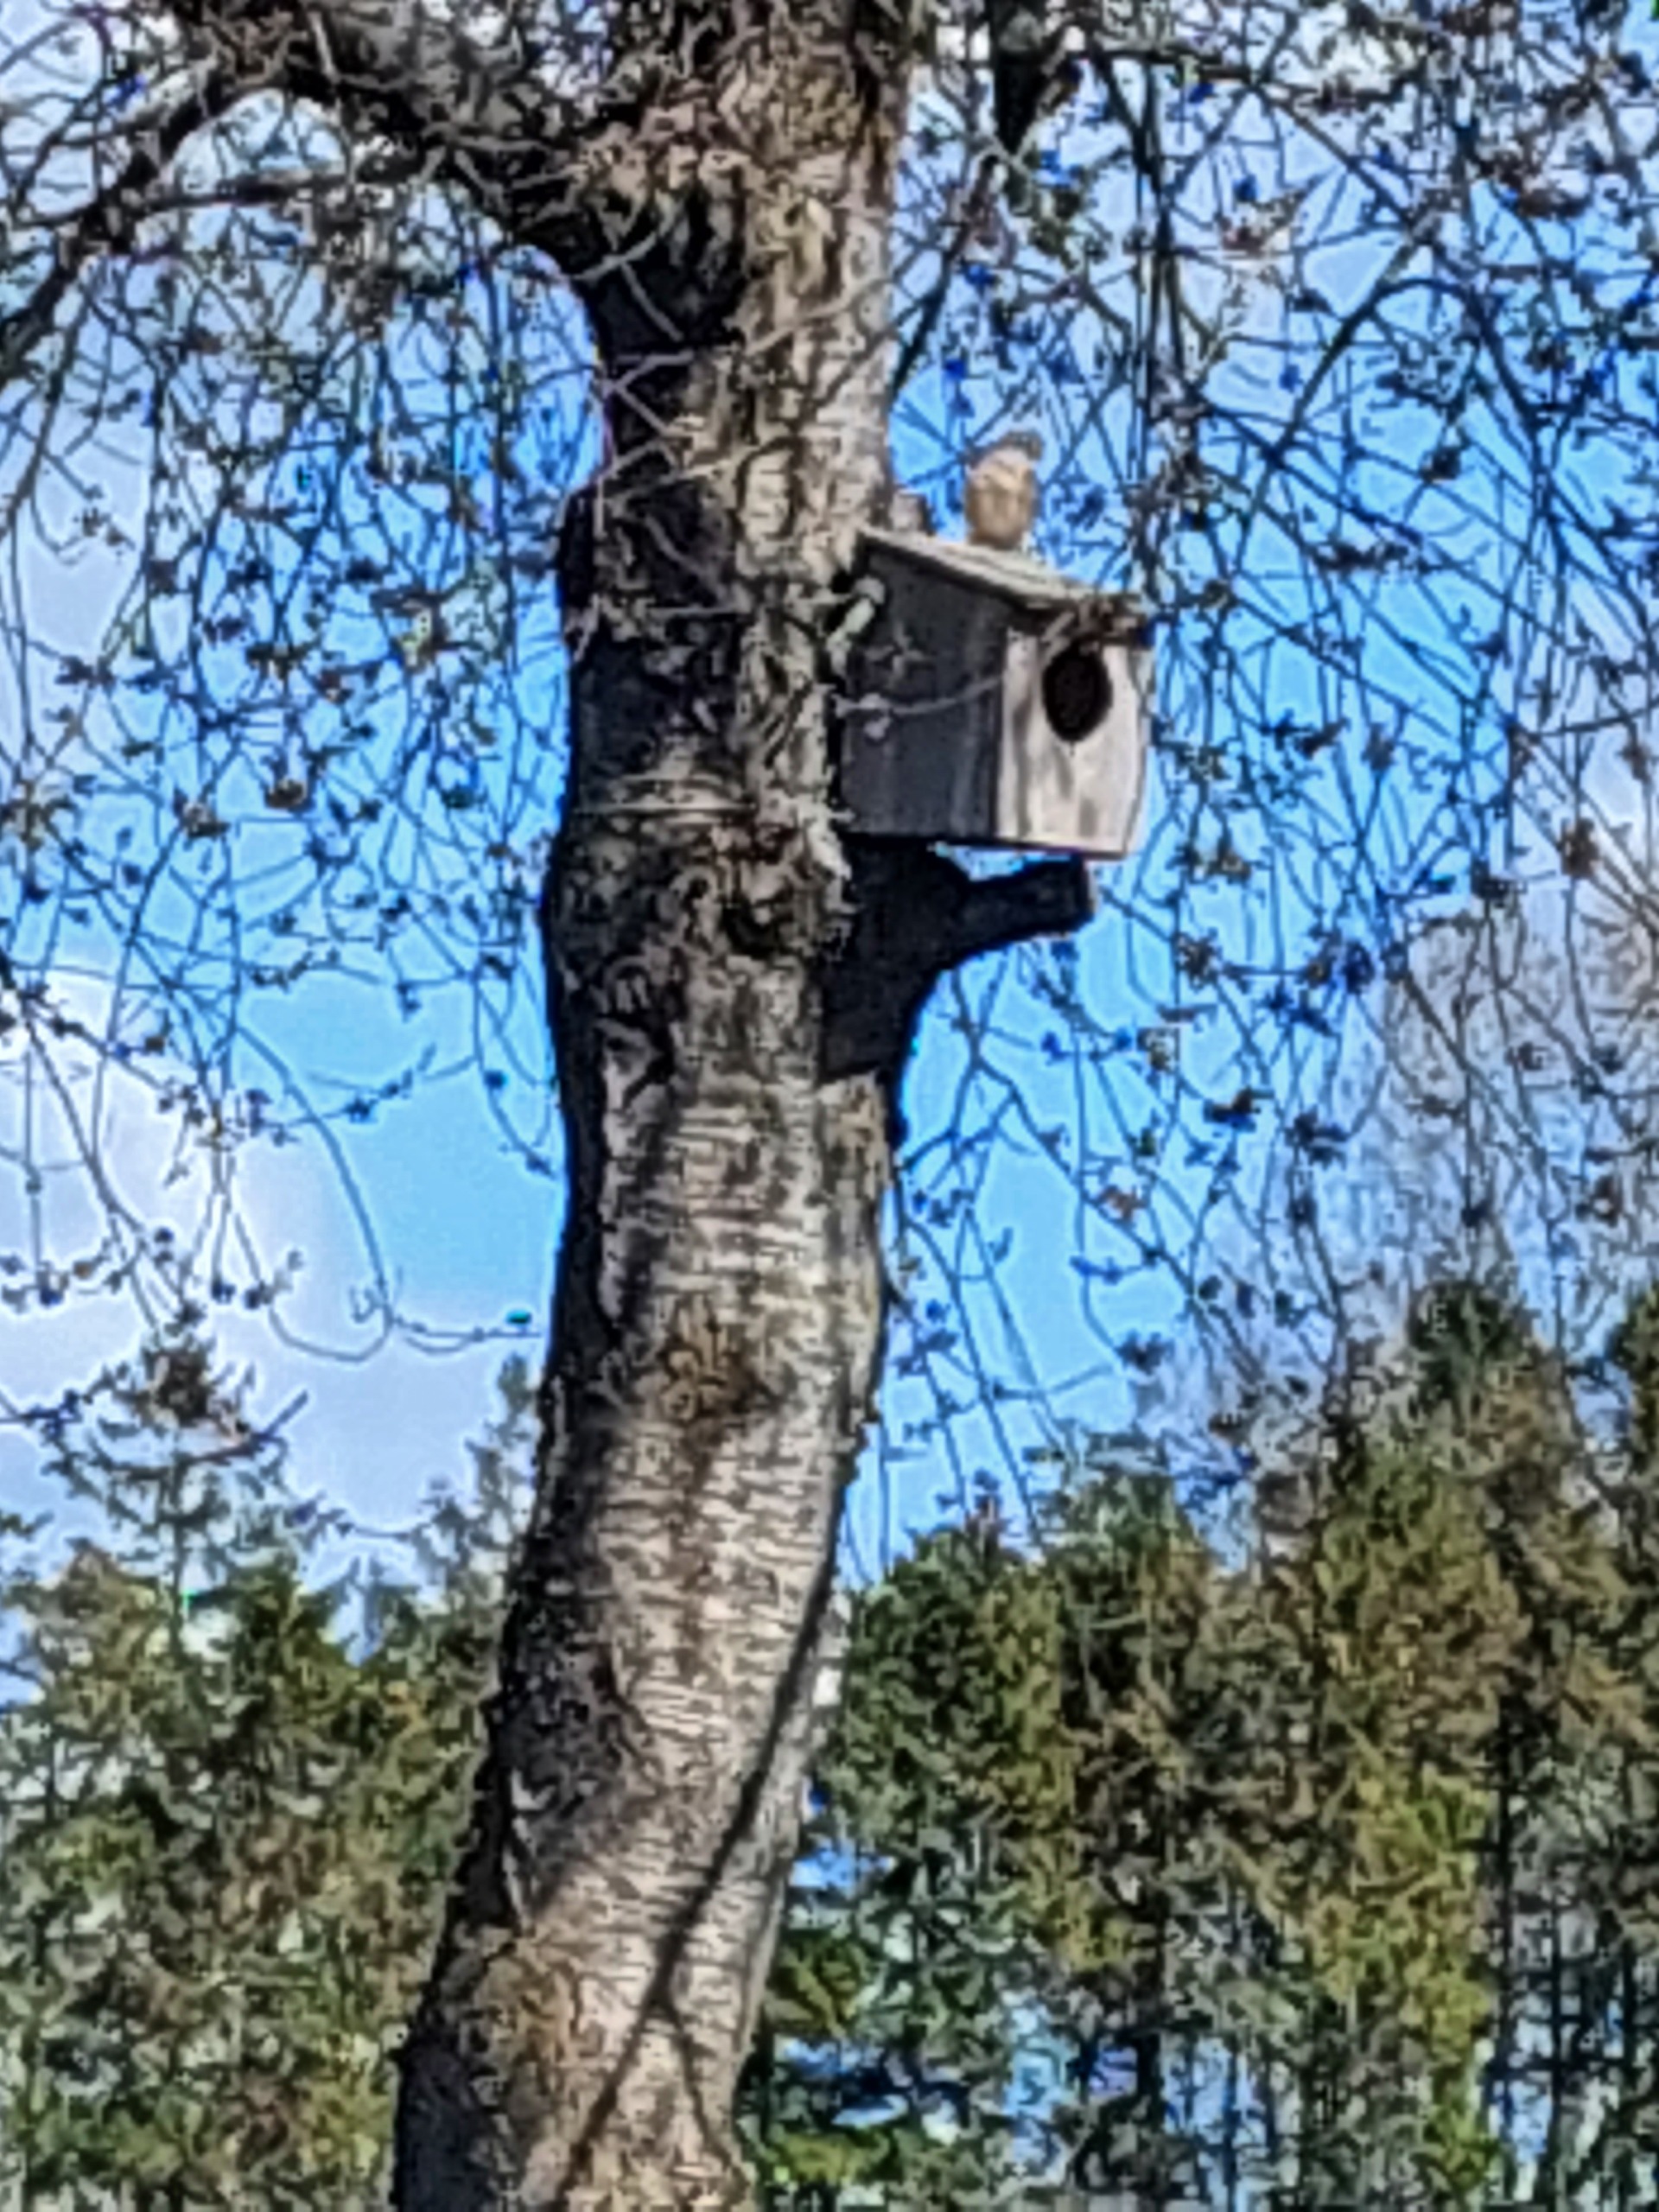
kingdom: Animalia
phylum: Chordata
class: Aves
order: Falconiformes
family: Falconidae
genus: Falco
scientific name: Falco tinnunculus
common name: Tårnfalk
